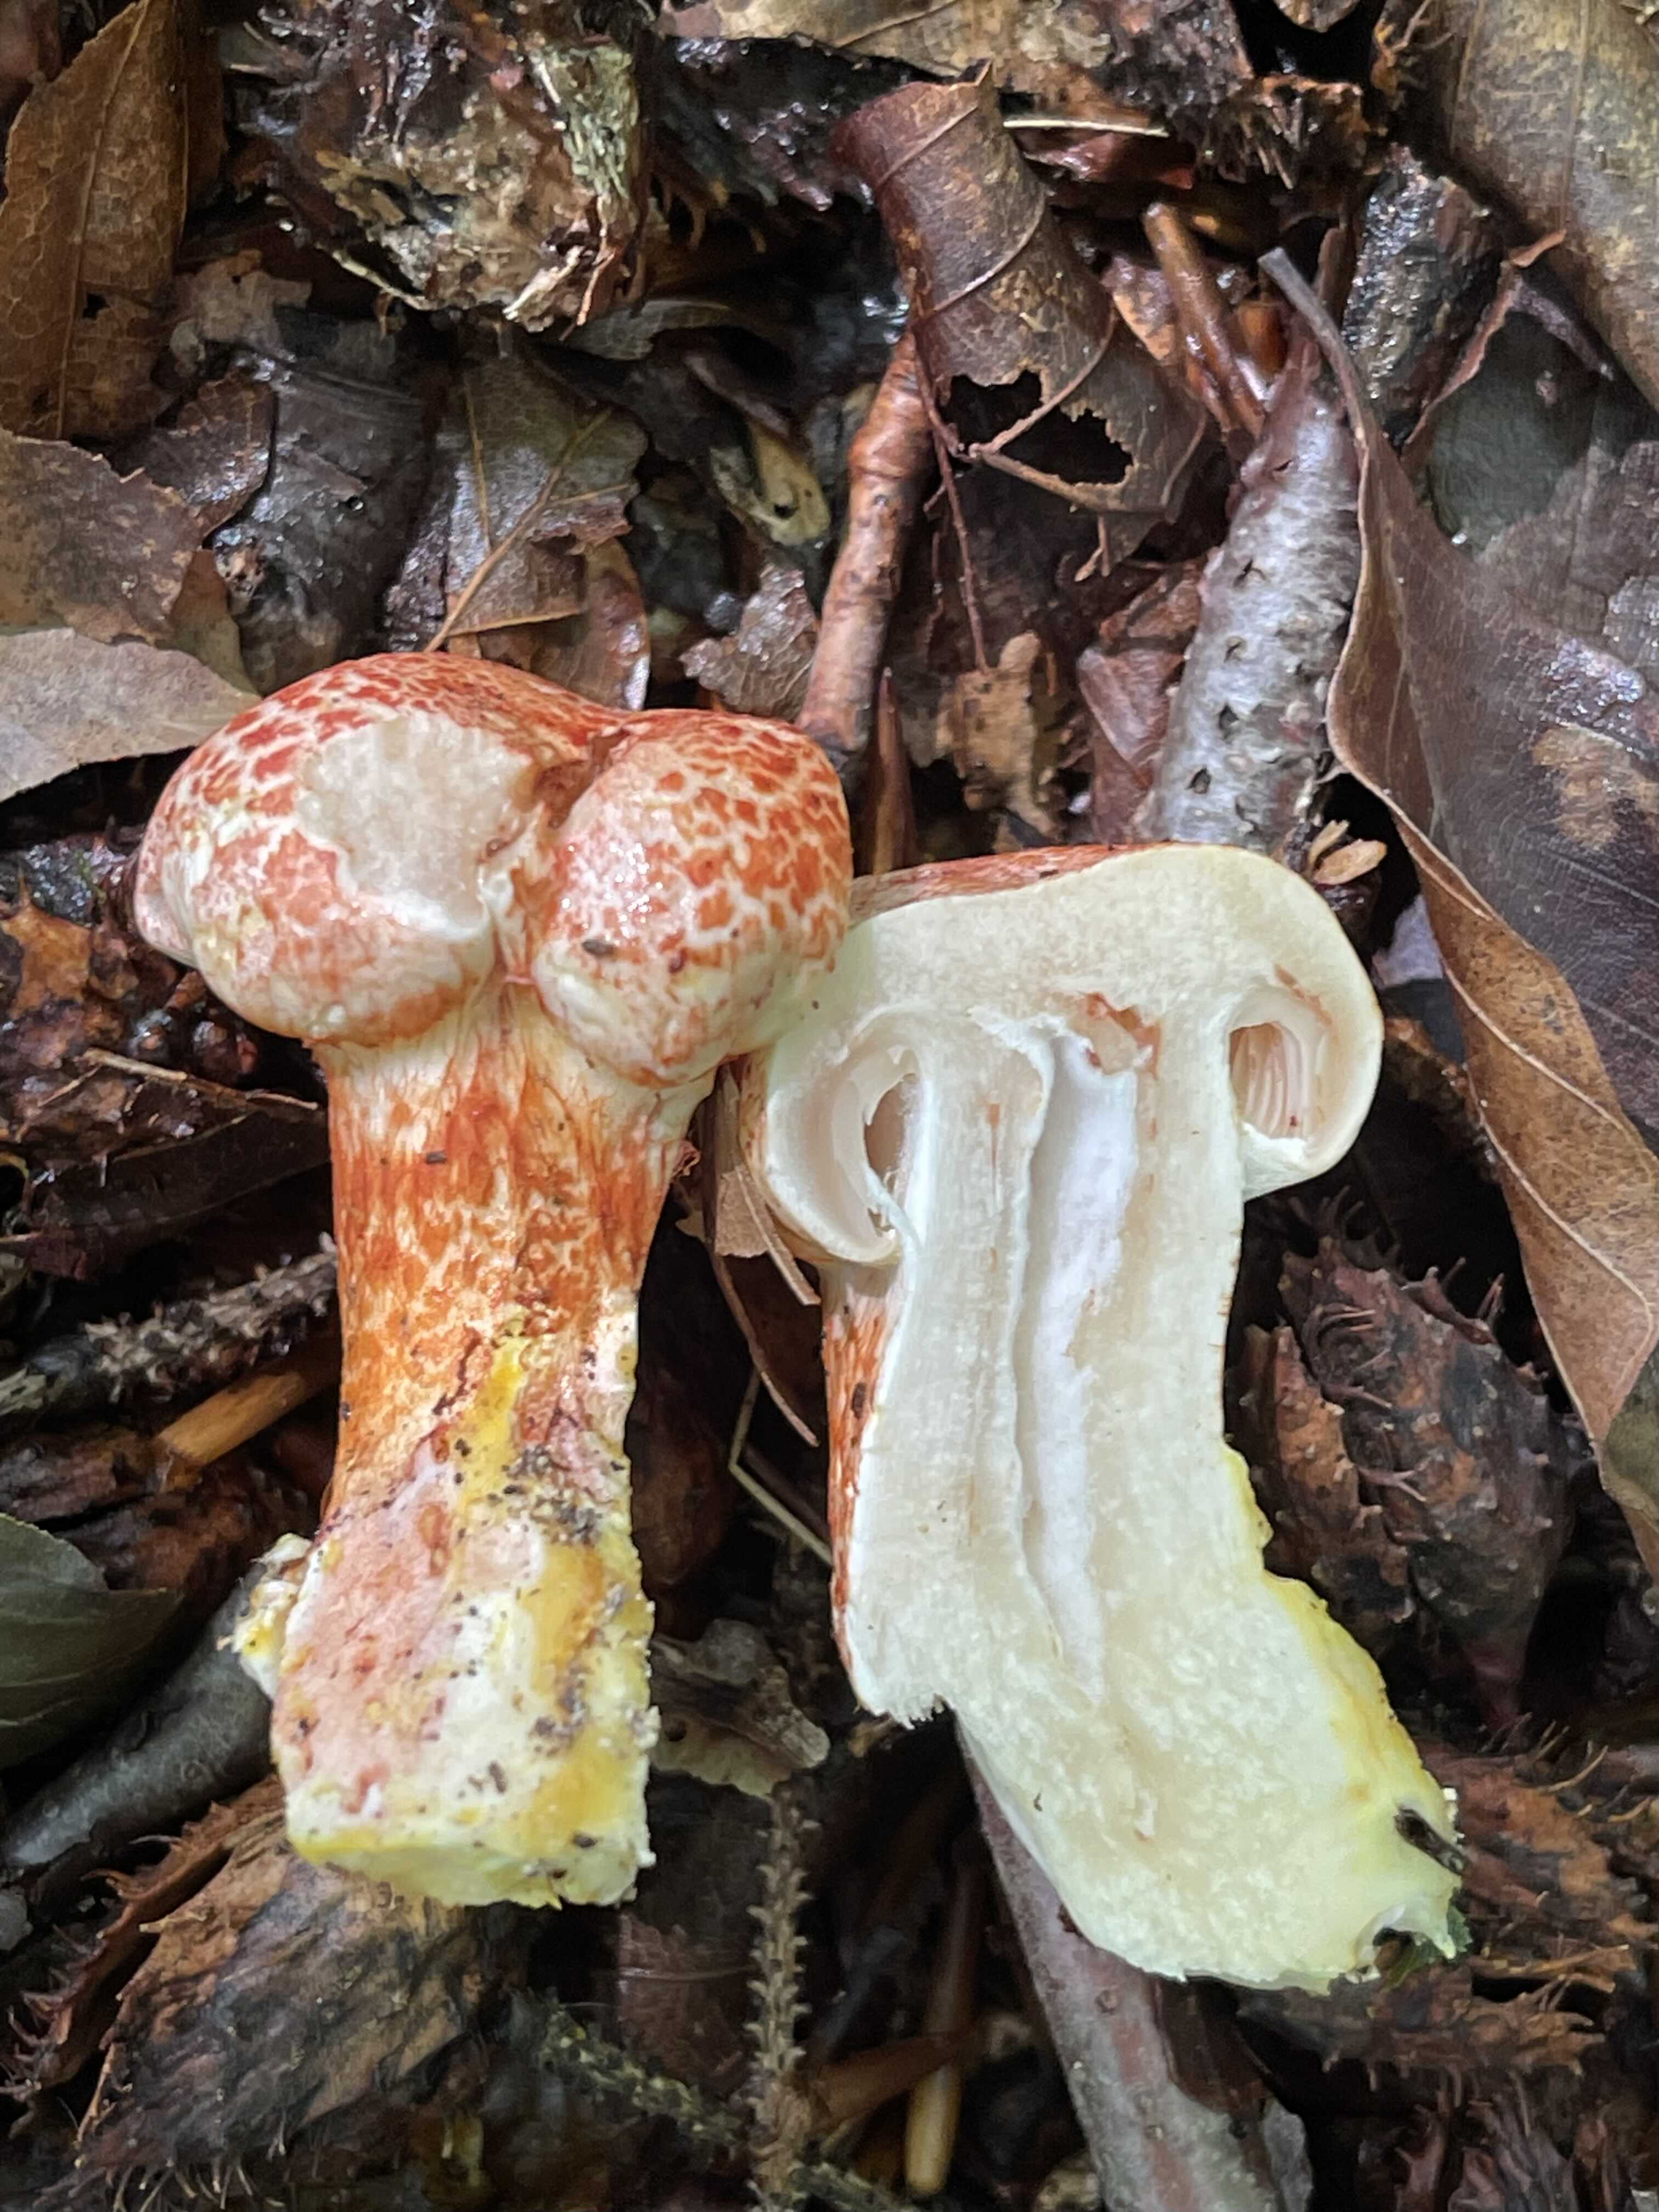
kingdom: Fungi
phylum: Basidiomycota
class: Agaricomycetes
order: Agaricales
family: Cortinariaceae
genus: Cortinarius
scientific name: Cortinarius bolaris
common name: cinnoberskællet slørhat
